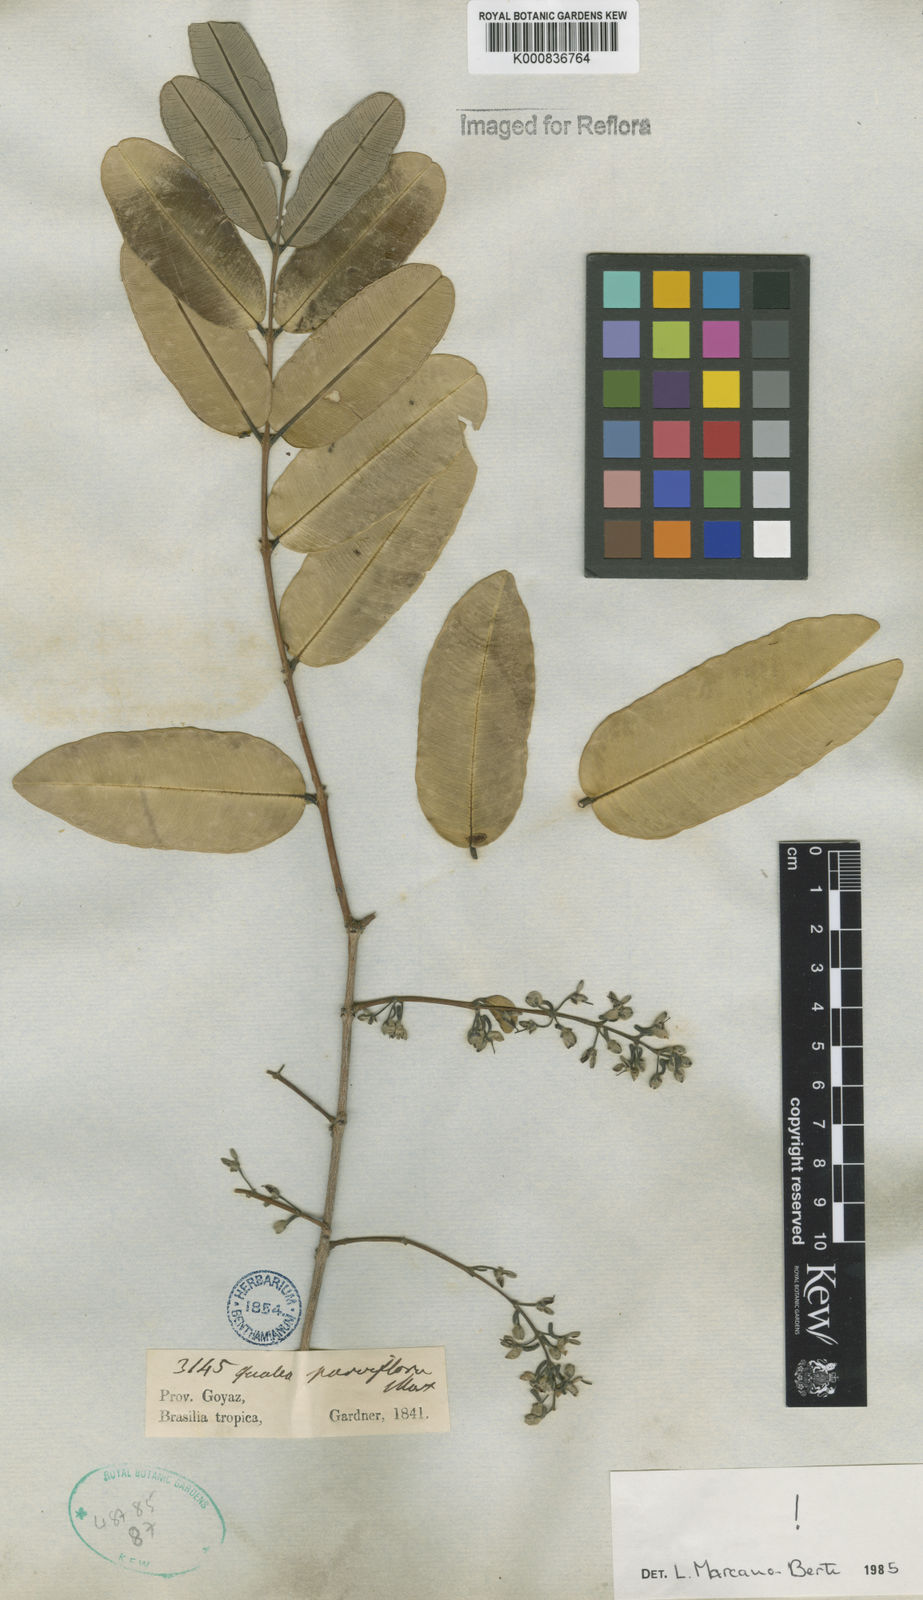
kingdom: Plantae
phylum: Tracheophyta
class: Magnoliopsida
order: Myrtales
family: Vochysiaceae
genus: Qualea
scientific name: Qualea parviflora
